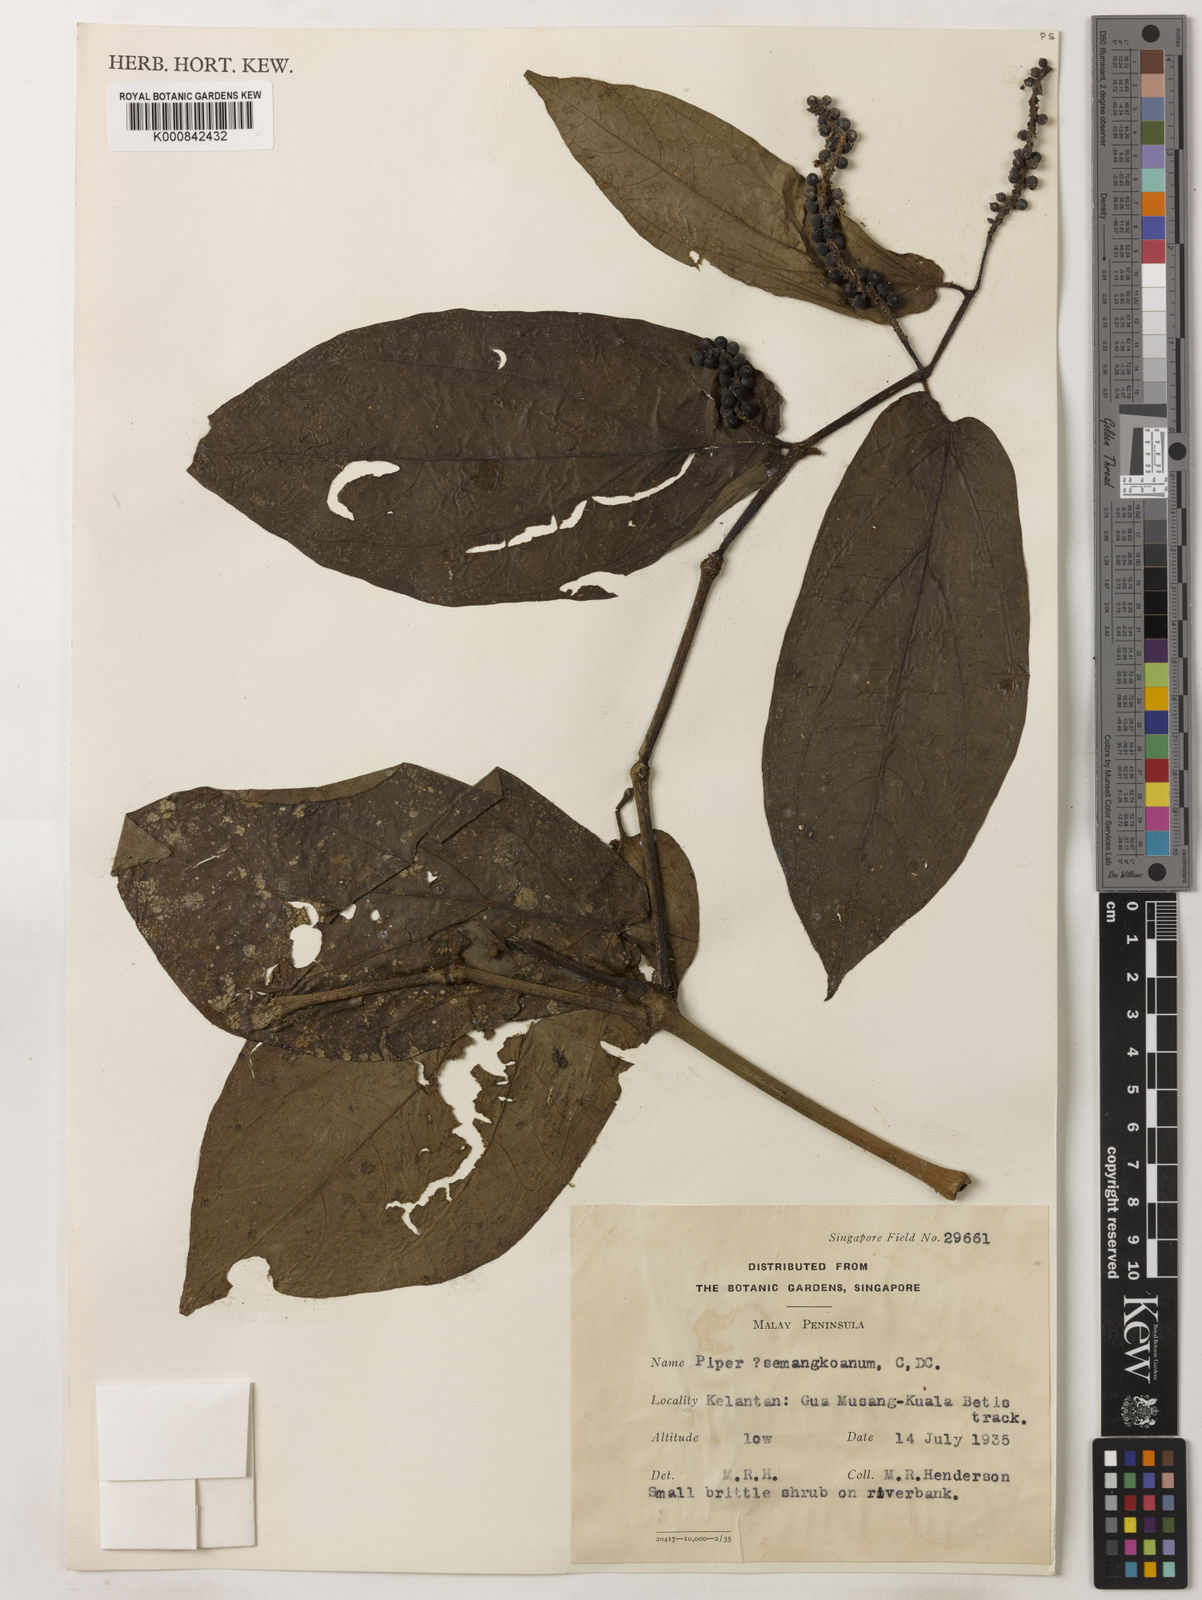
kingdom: Plantae
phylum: Tracheophyta
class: Magnoliopsida
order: Piperales
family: Piperaceae
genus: Piper
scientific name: Piper semangkoanum
